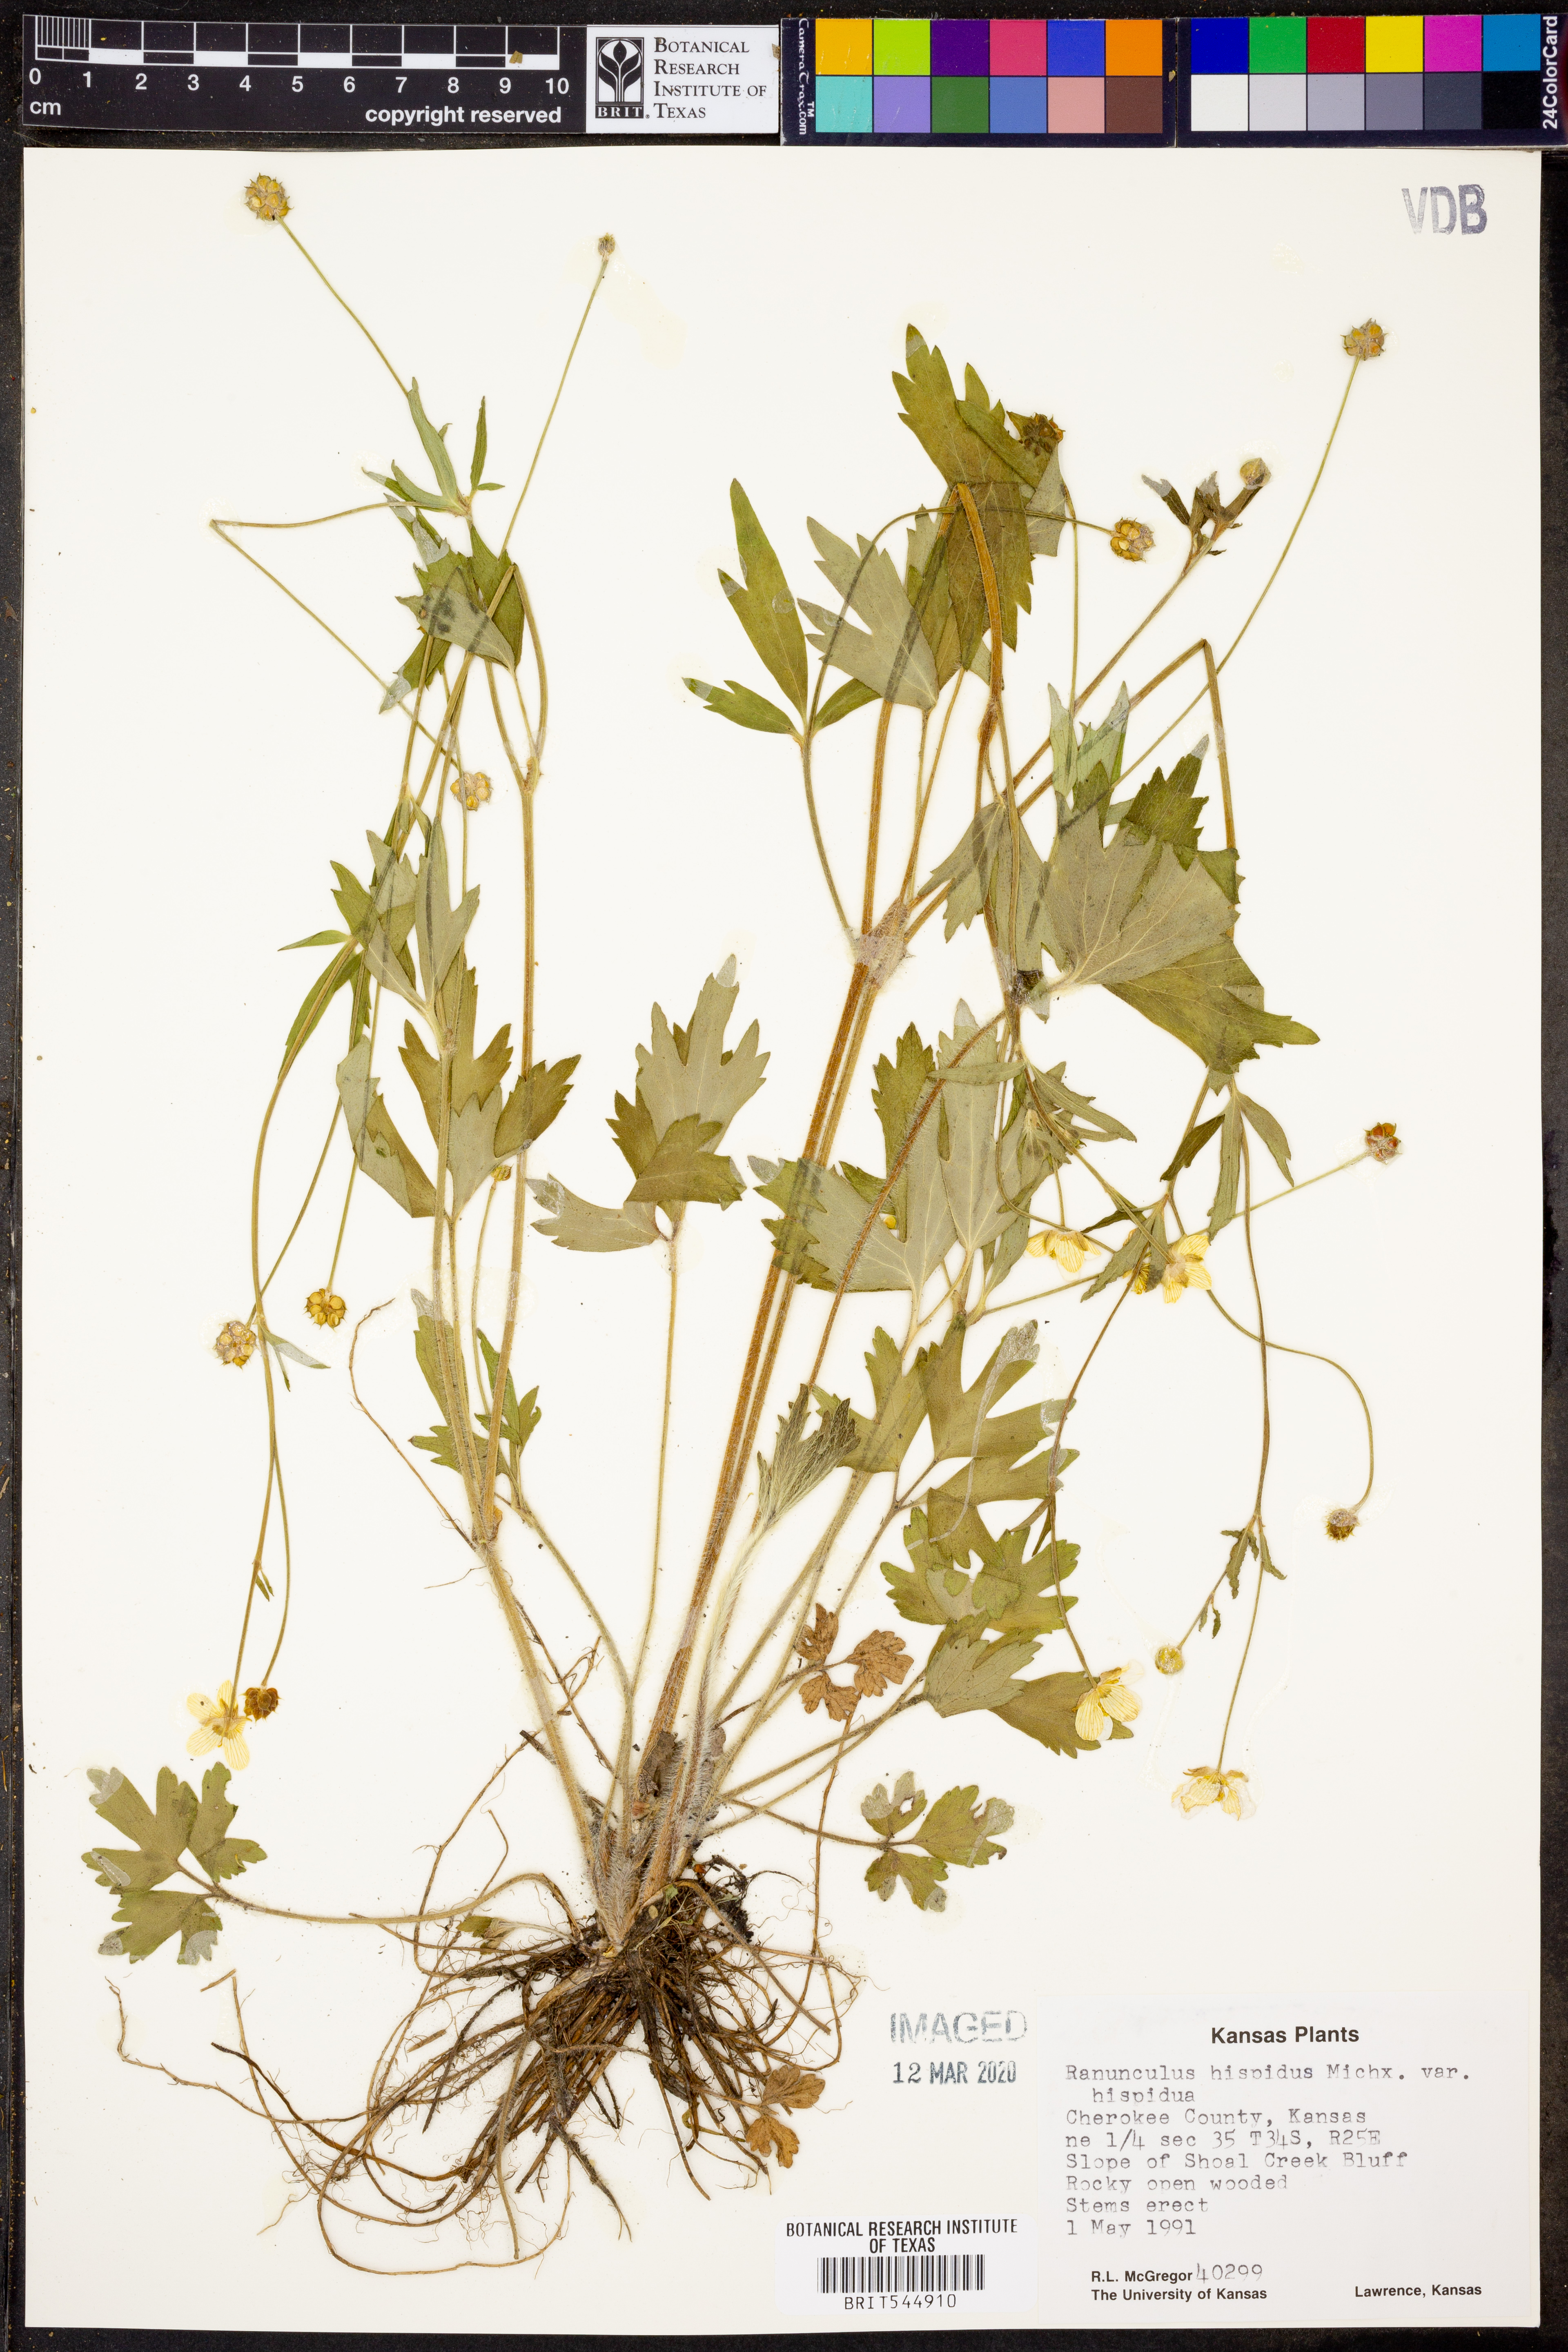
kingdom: Plantae
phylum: Tracheophyta
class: Magnoliopsida
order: Ranunculales
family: Ranunculaceae
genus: Ranunculus
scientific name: Ranunculus hispidus
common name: Bristly buttercup
